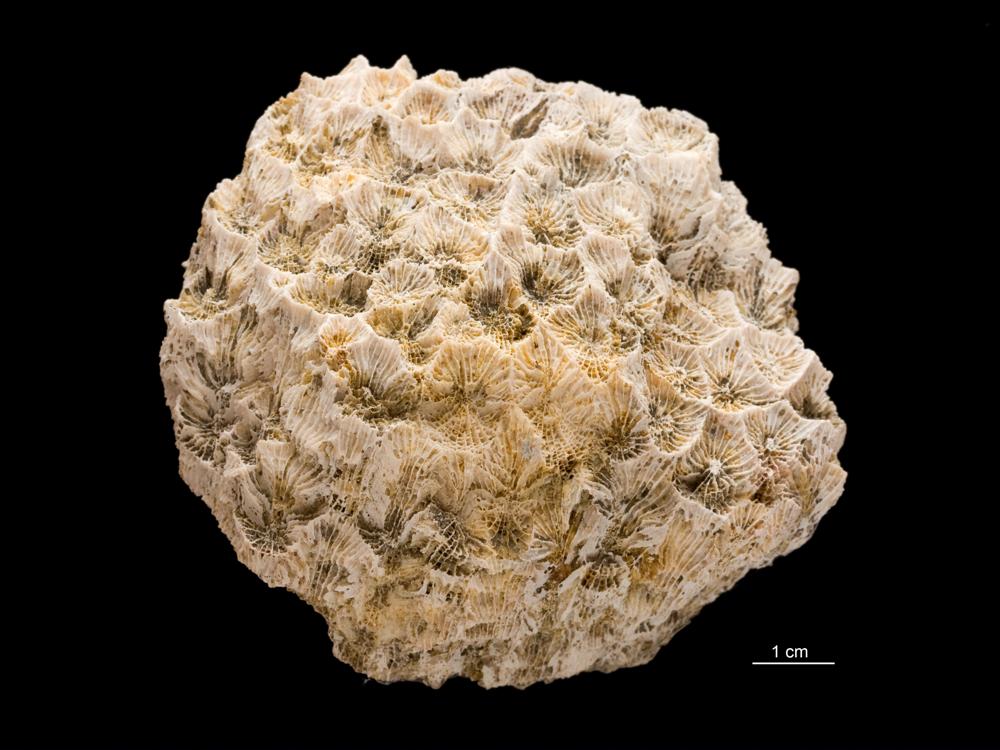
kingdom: Animalia
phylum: Cnidaria
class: Anthozoa
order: Scleractinia
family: Merulinidae
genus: Favites
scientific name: Favites
